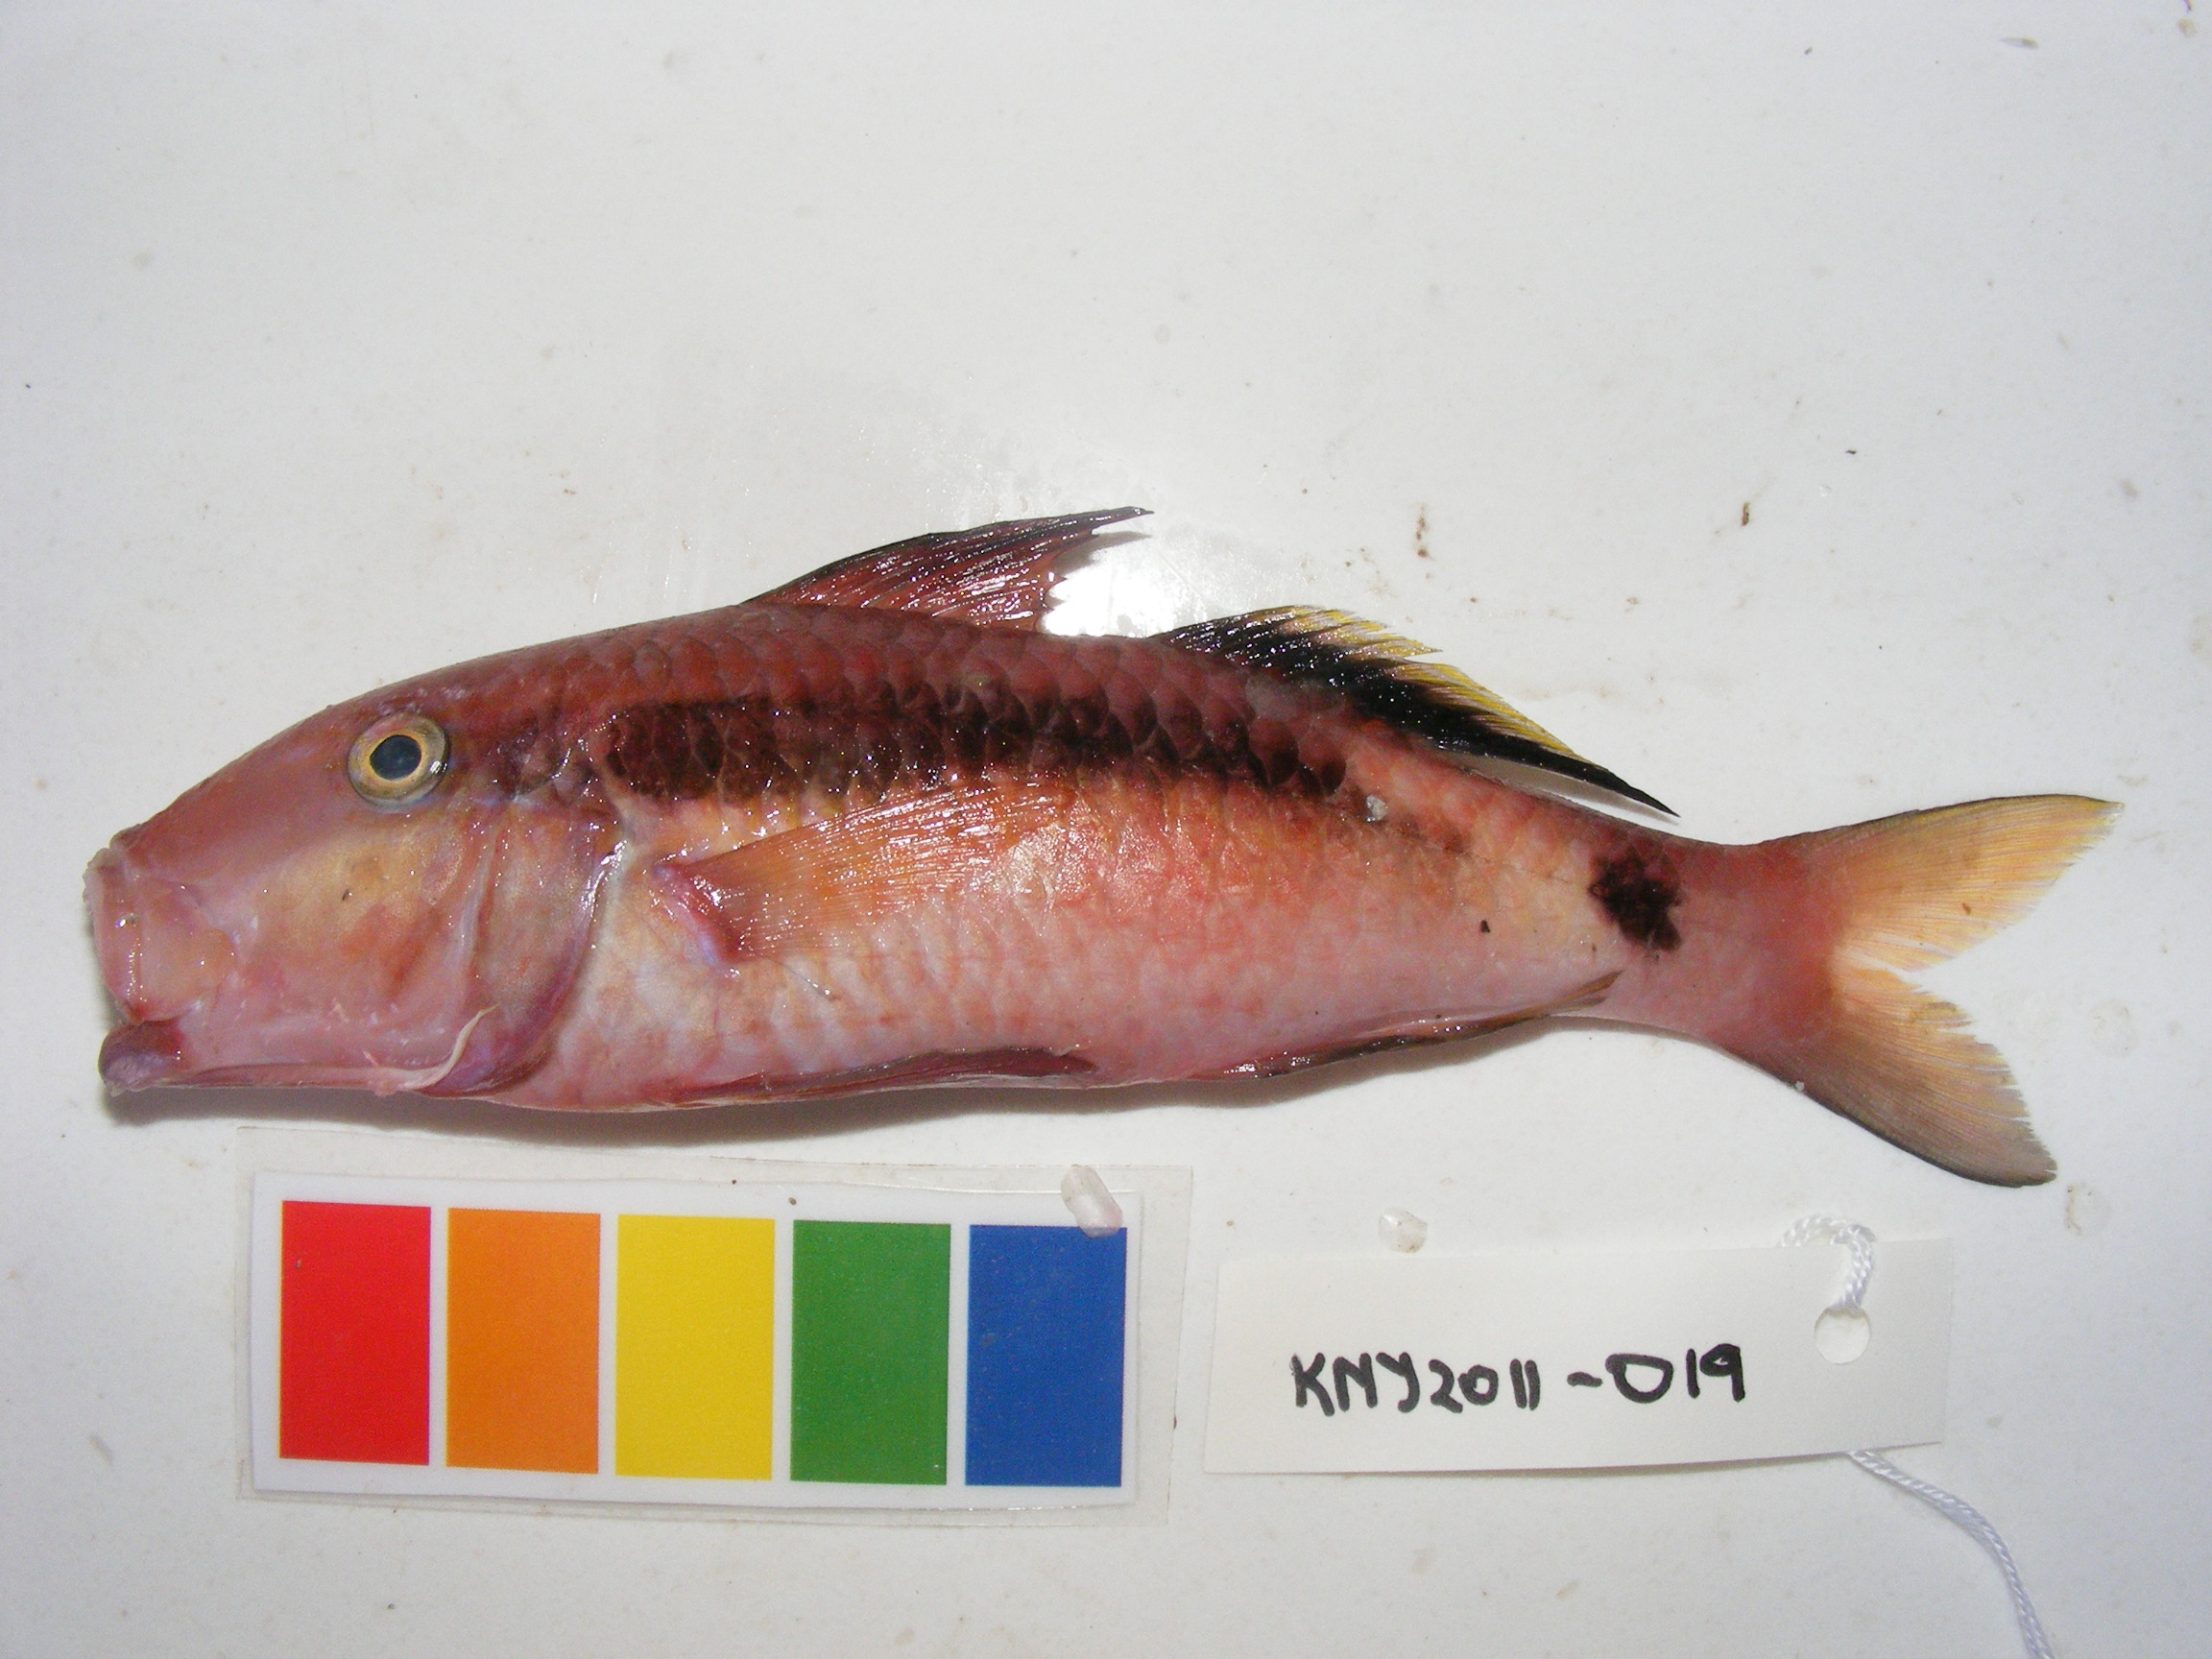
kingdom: Animalia
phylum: Chordata
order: Perciformes
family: Mullidae
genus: Parupeneus
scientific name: Parupeneus macronemus
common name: Long-barbel goatfish
